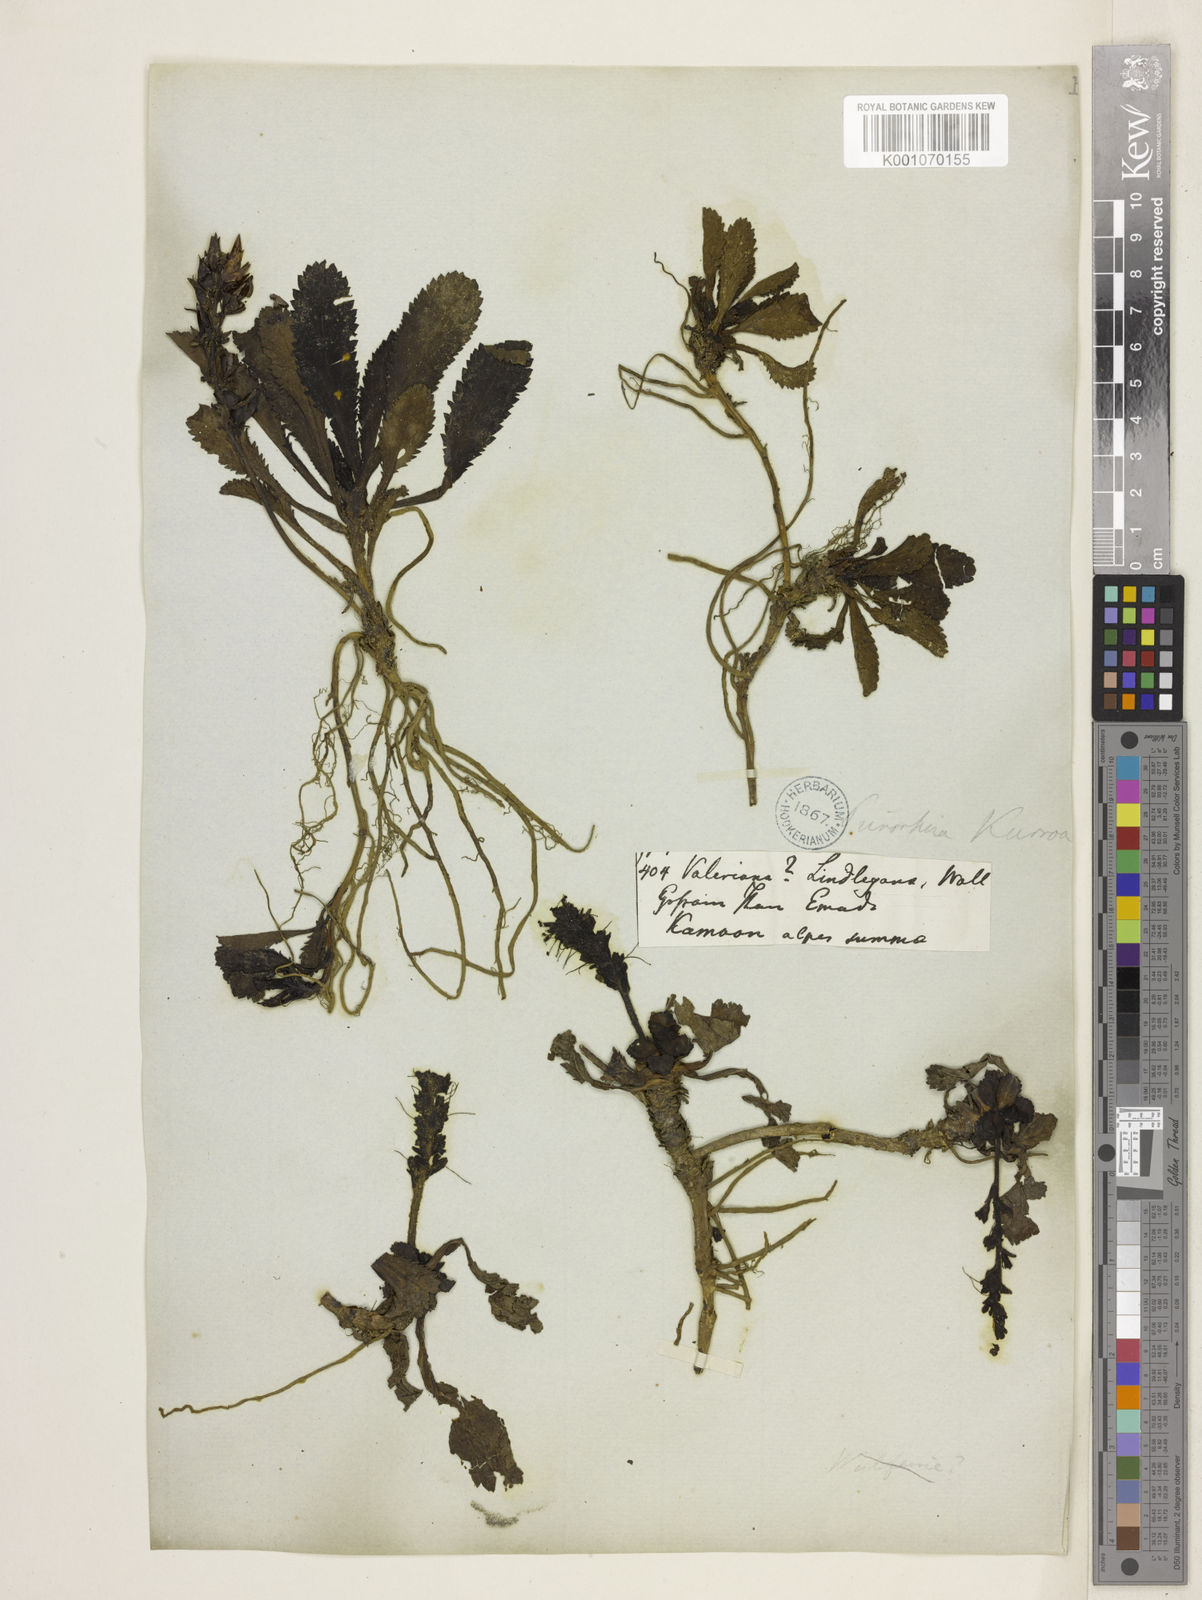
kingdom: Plantae
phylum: Tracheophyta
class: Magnoliopsida
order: Lamiales
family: Plantaginaceae
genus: Picrorhiza
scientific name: Picrorhiza
